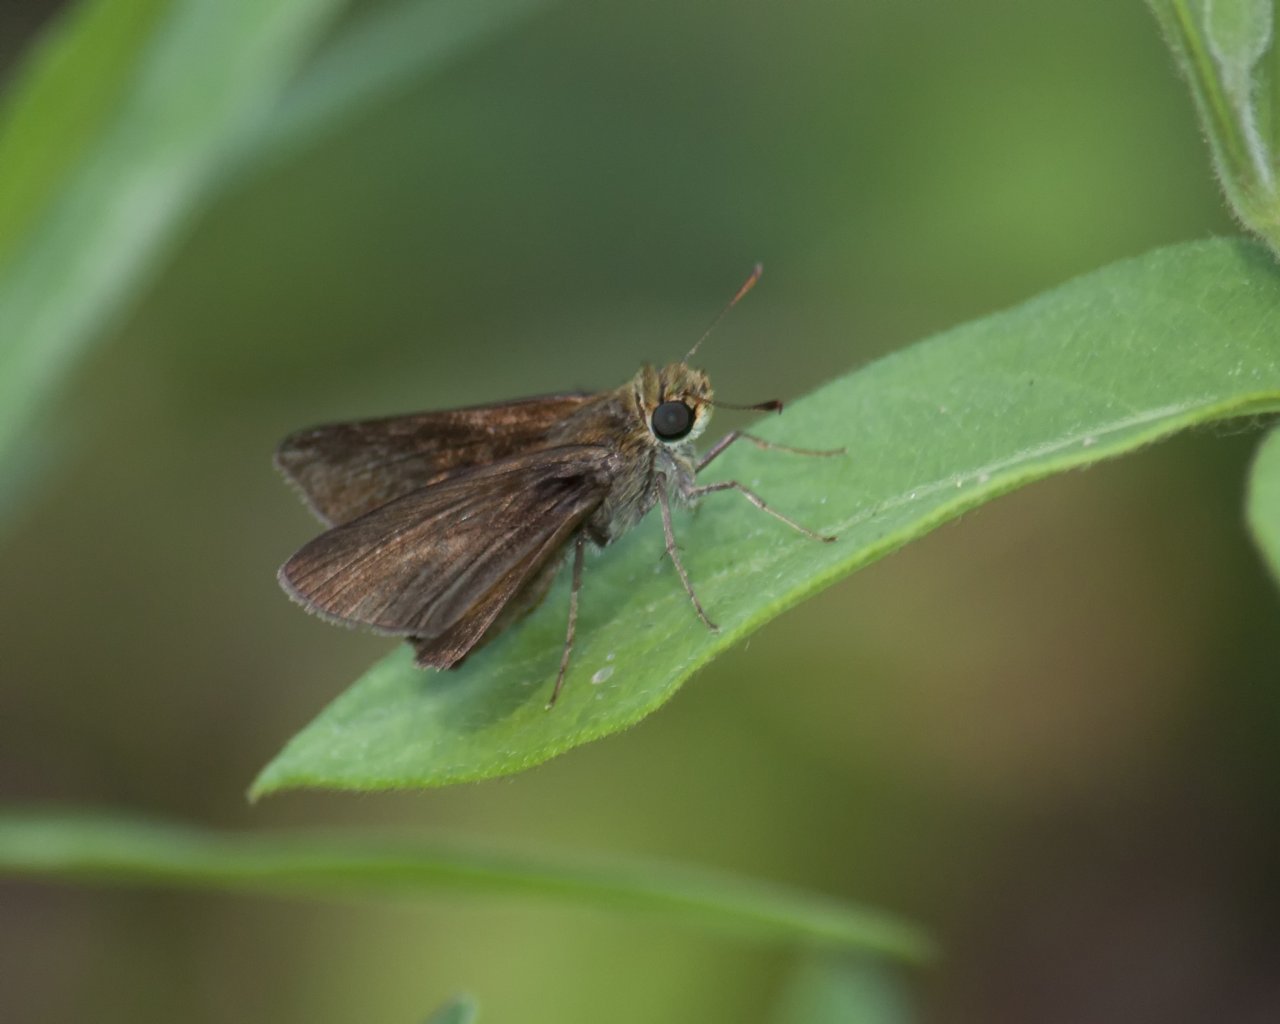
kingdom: Animalia
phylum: Arthropoda
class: Insecta
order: Lepidoptera
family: Hesperiidae
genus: Euphyes
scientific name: Euphyes vestris
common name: Dun Skipper
